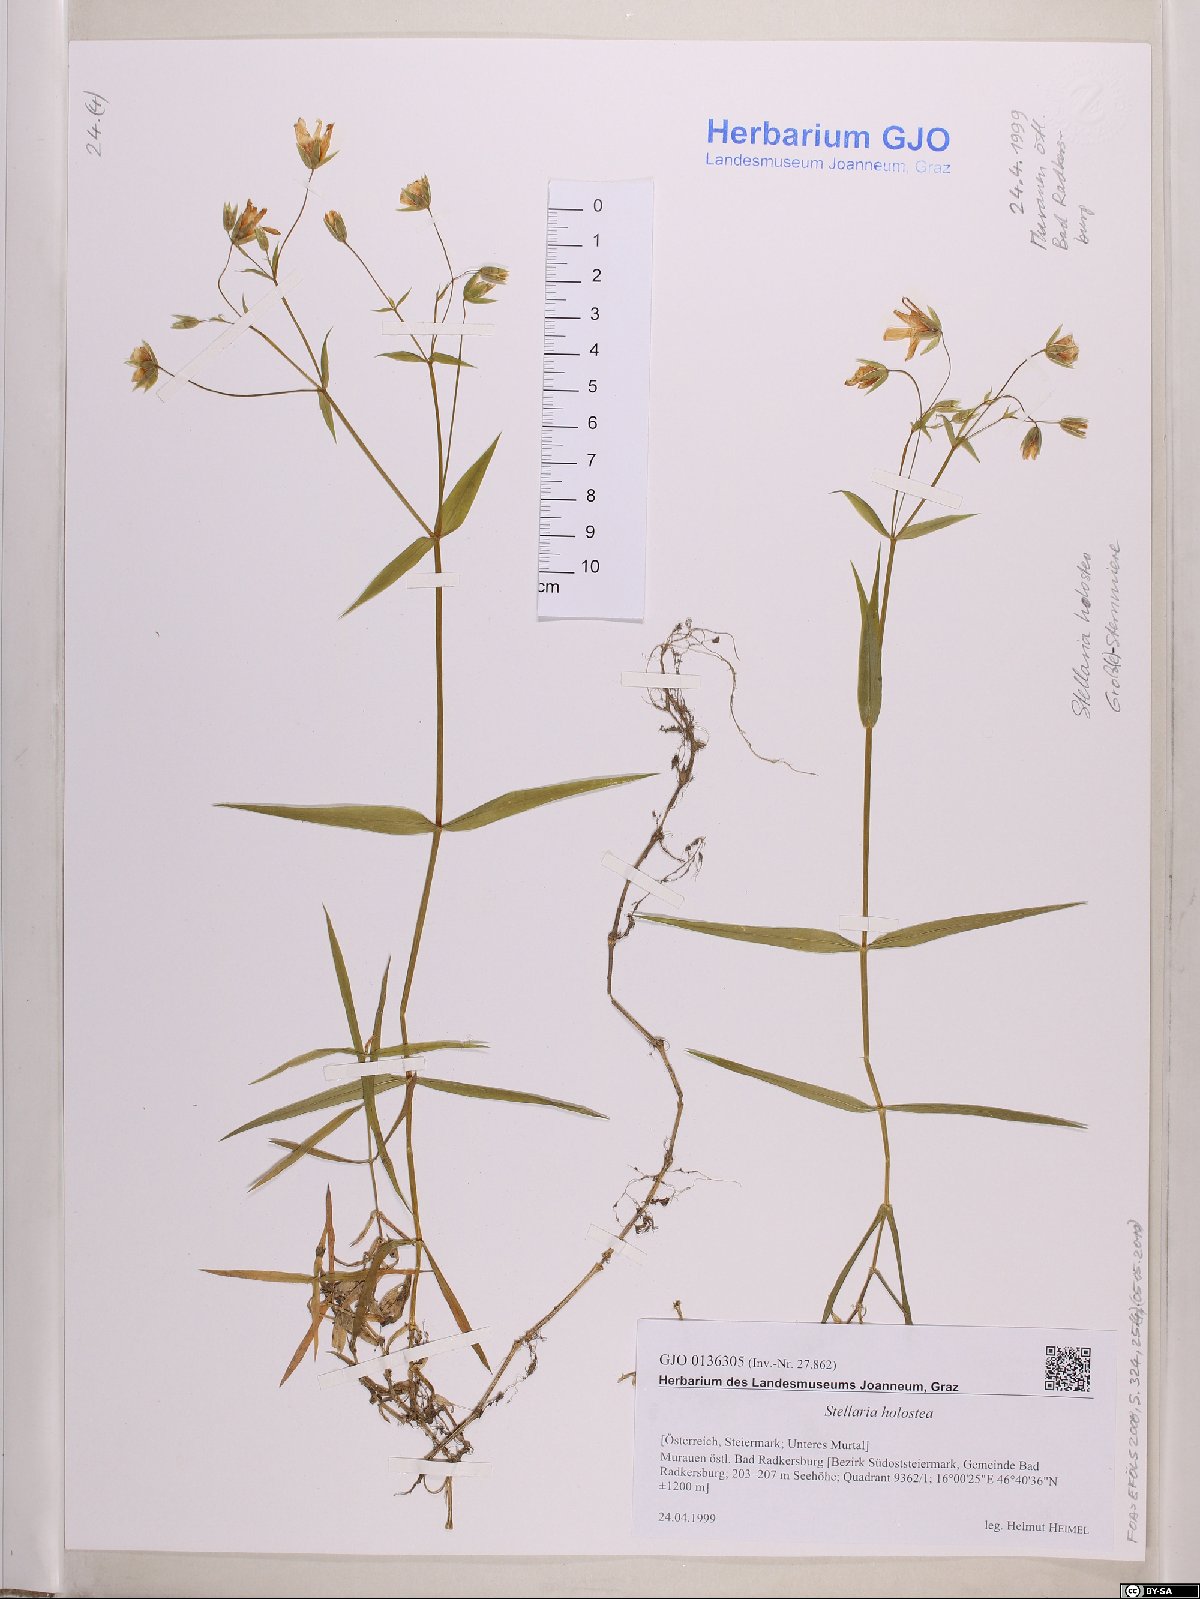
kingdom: Plantae
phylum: Tracheophyta
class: Magnoliopsida
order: Caryophyllales
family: Caryophyllaceae
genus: Rabelera
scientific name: Rabelera holostea
